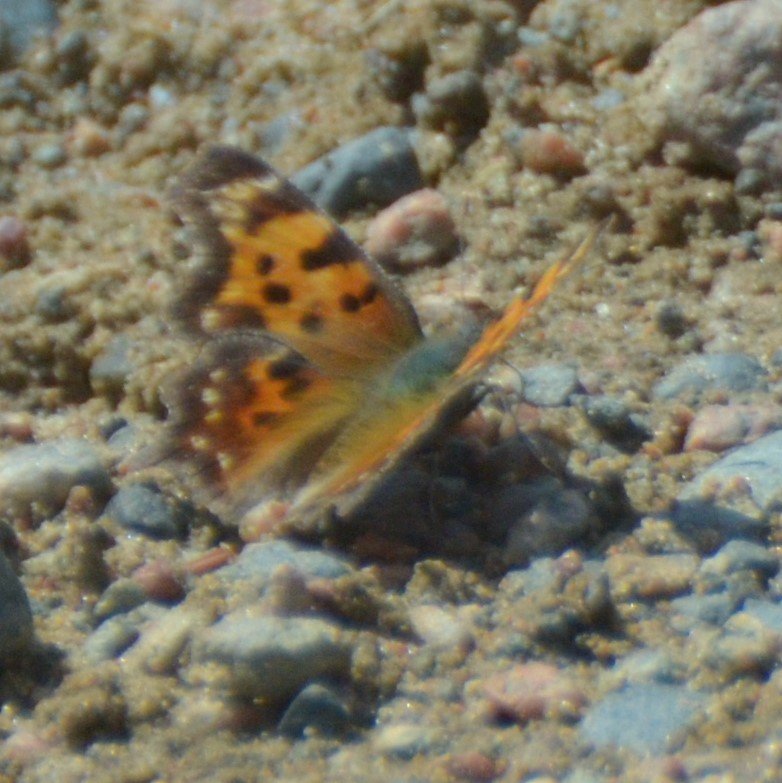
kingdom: Animalia
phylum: Arthropoda
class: Insecta
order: Lepidoptera
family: Nymphalidae
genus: Polygonia
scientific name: Polygonia faunus
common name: Green Comma
